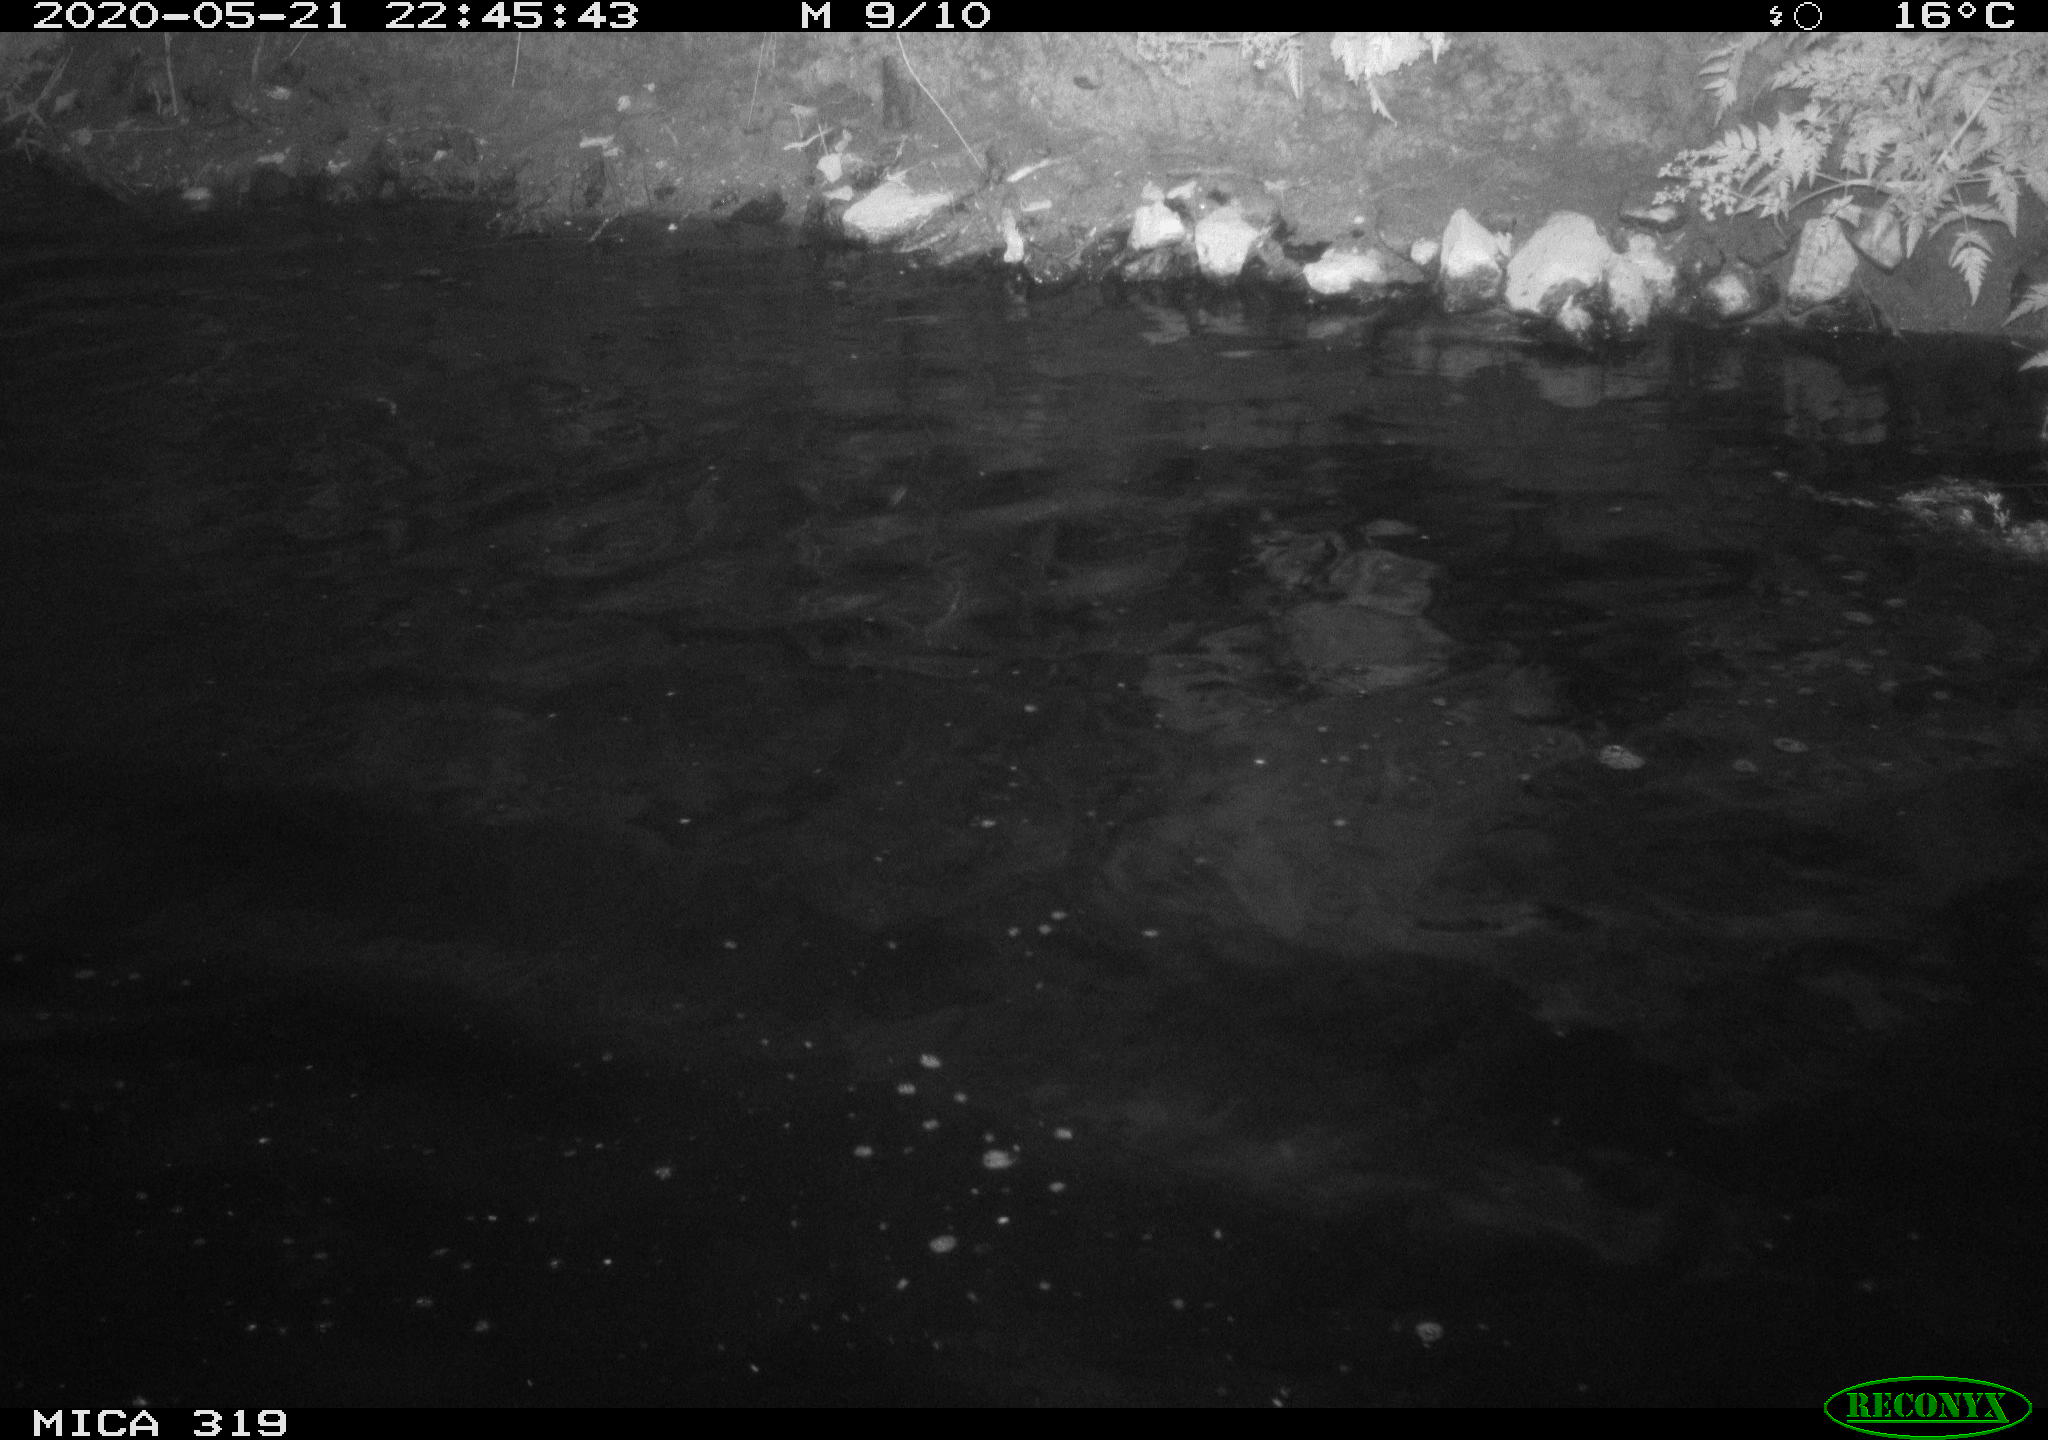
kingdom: Animalia
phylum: Chordata
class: Aves
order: Anseriformes
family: Anatidae
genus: Anas
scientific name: Anas platyrhynchos
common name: Mallard
